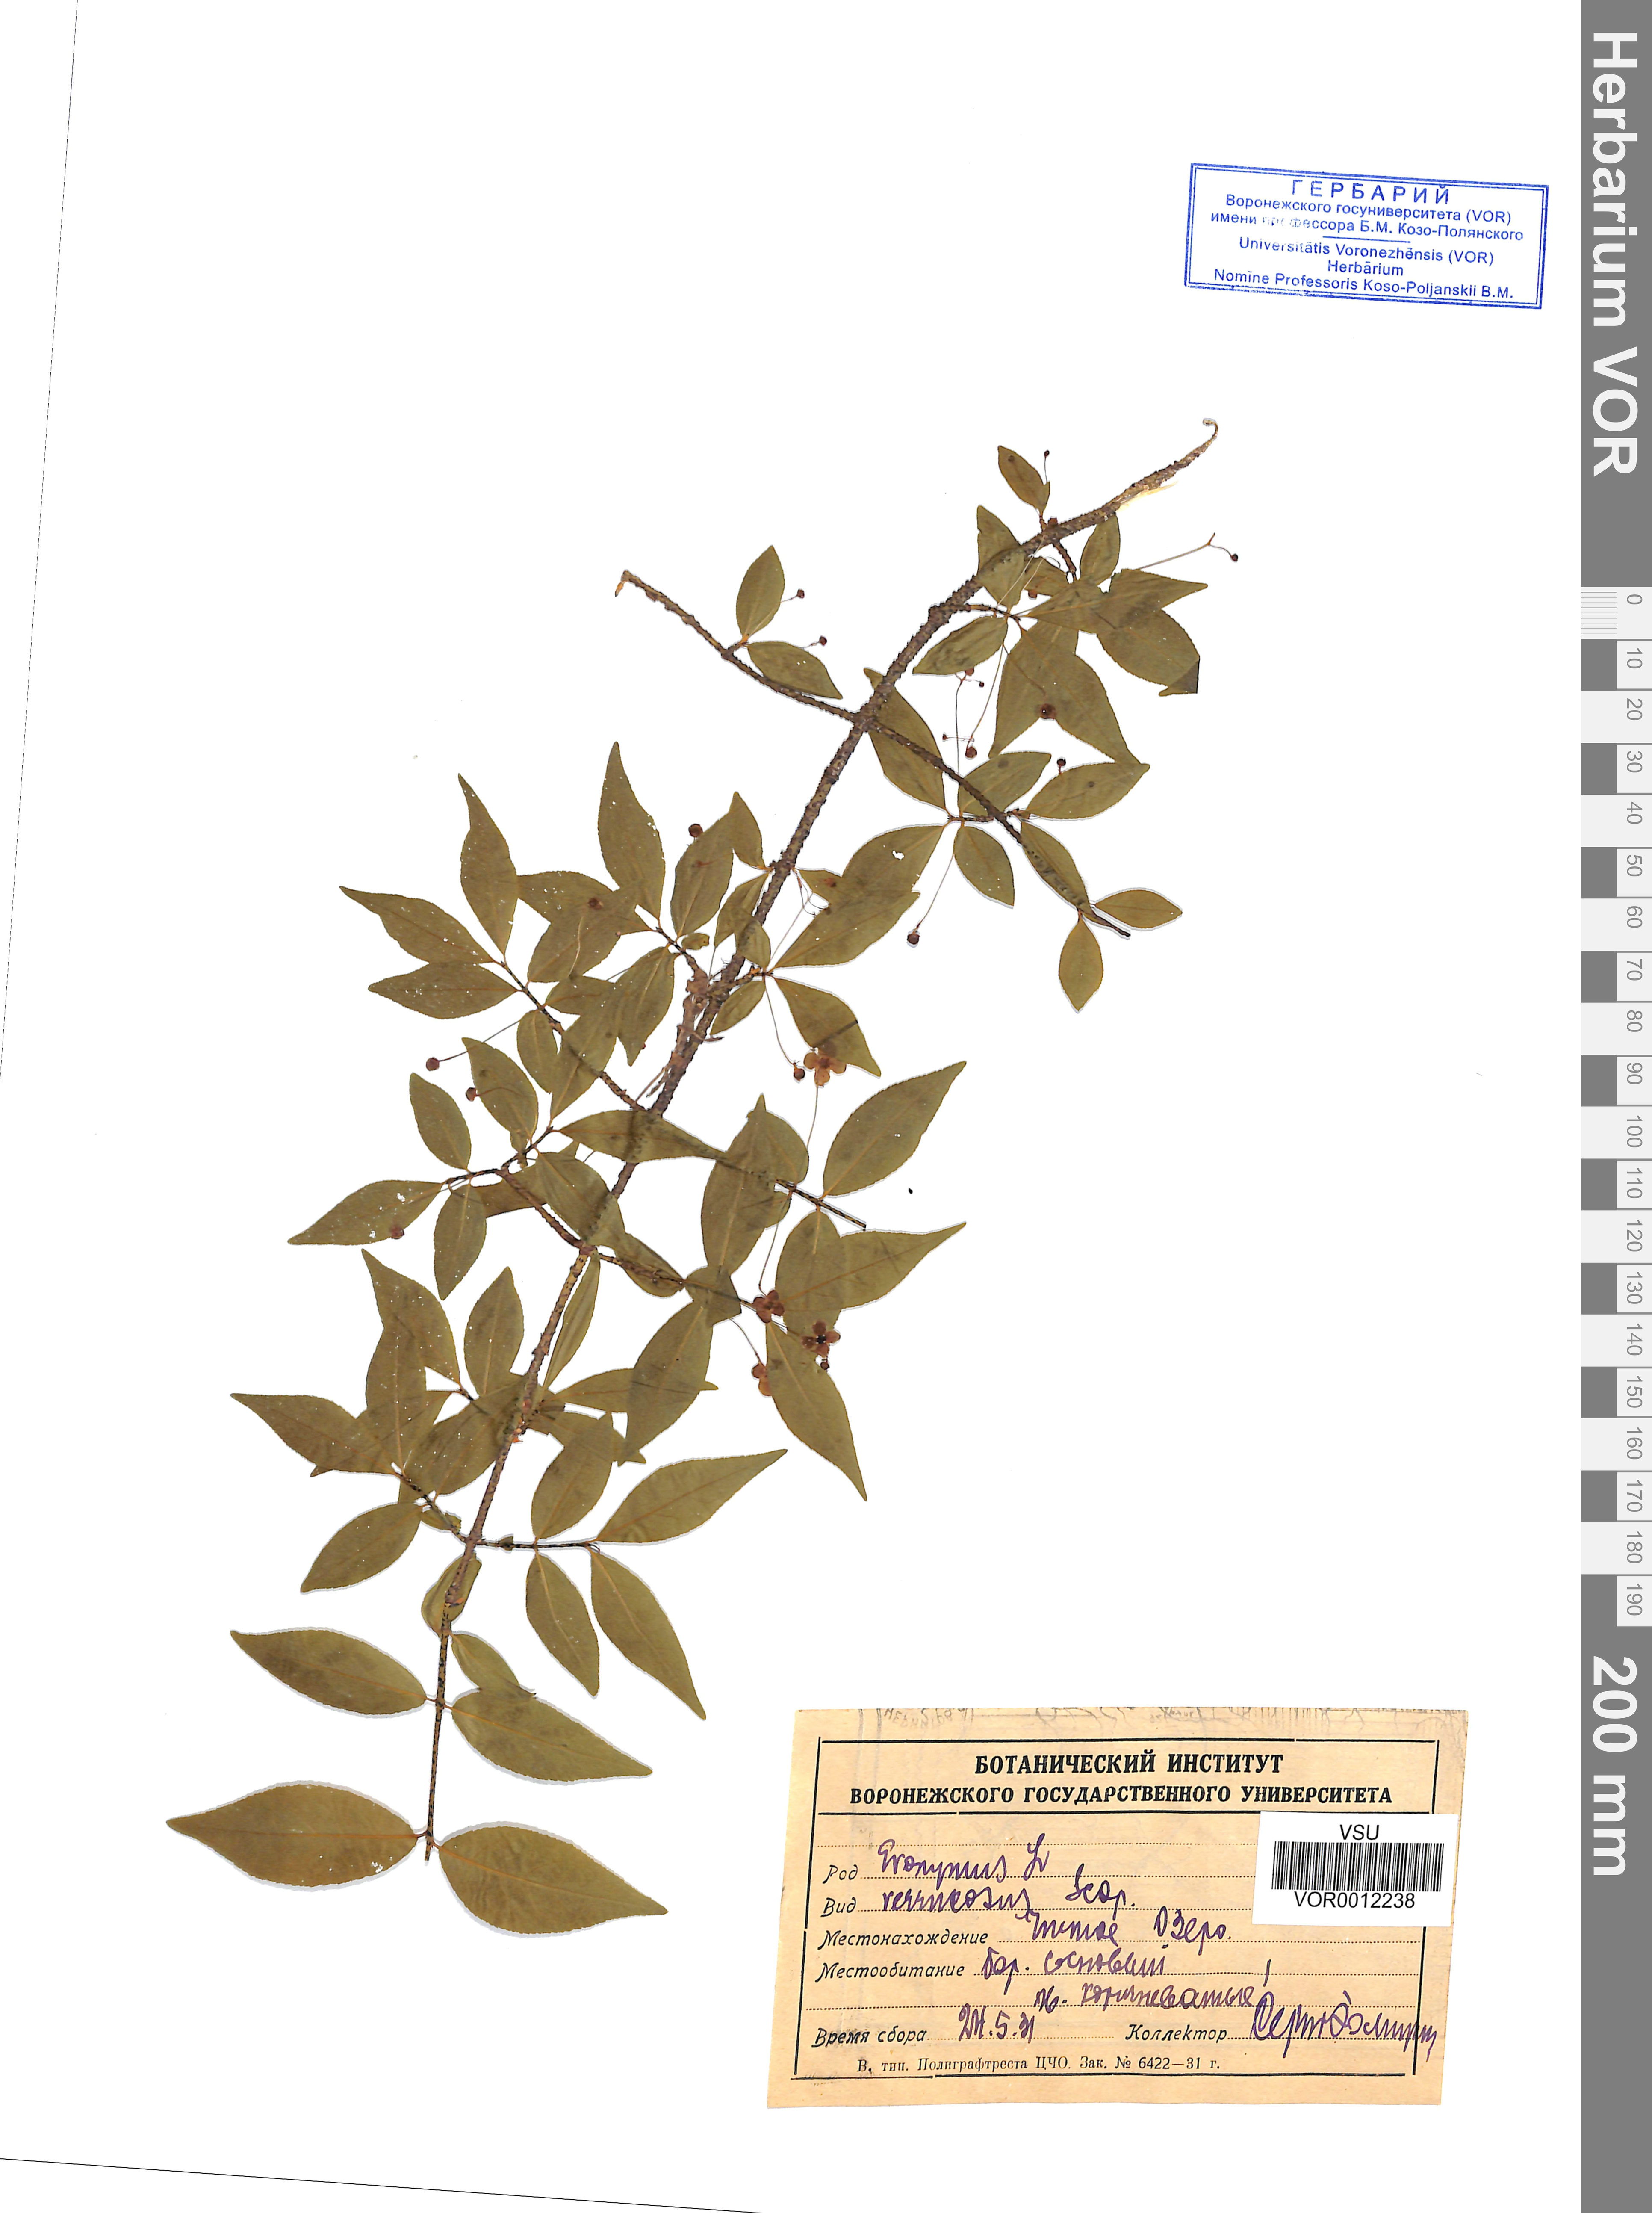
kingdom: Plantae
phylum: Tracheophyta
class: Magnoliopsida
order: Celastrales
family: Celastraceae
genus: Euonymus
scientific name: Euonymus verrucosus
